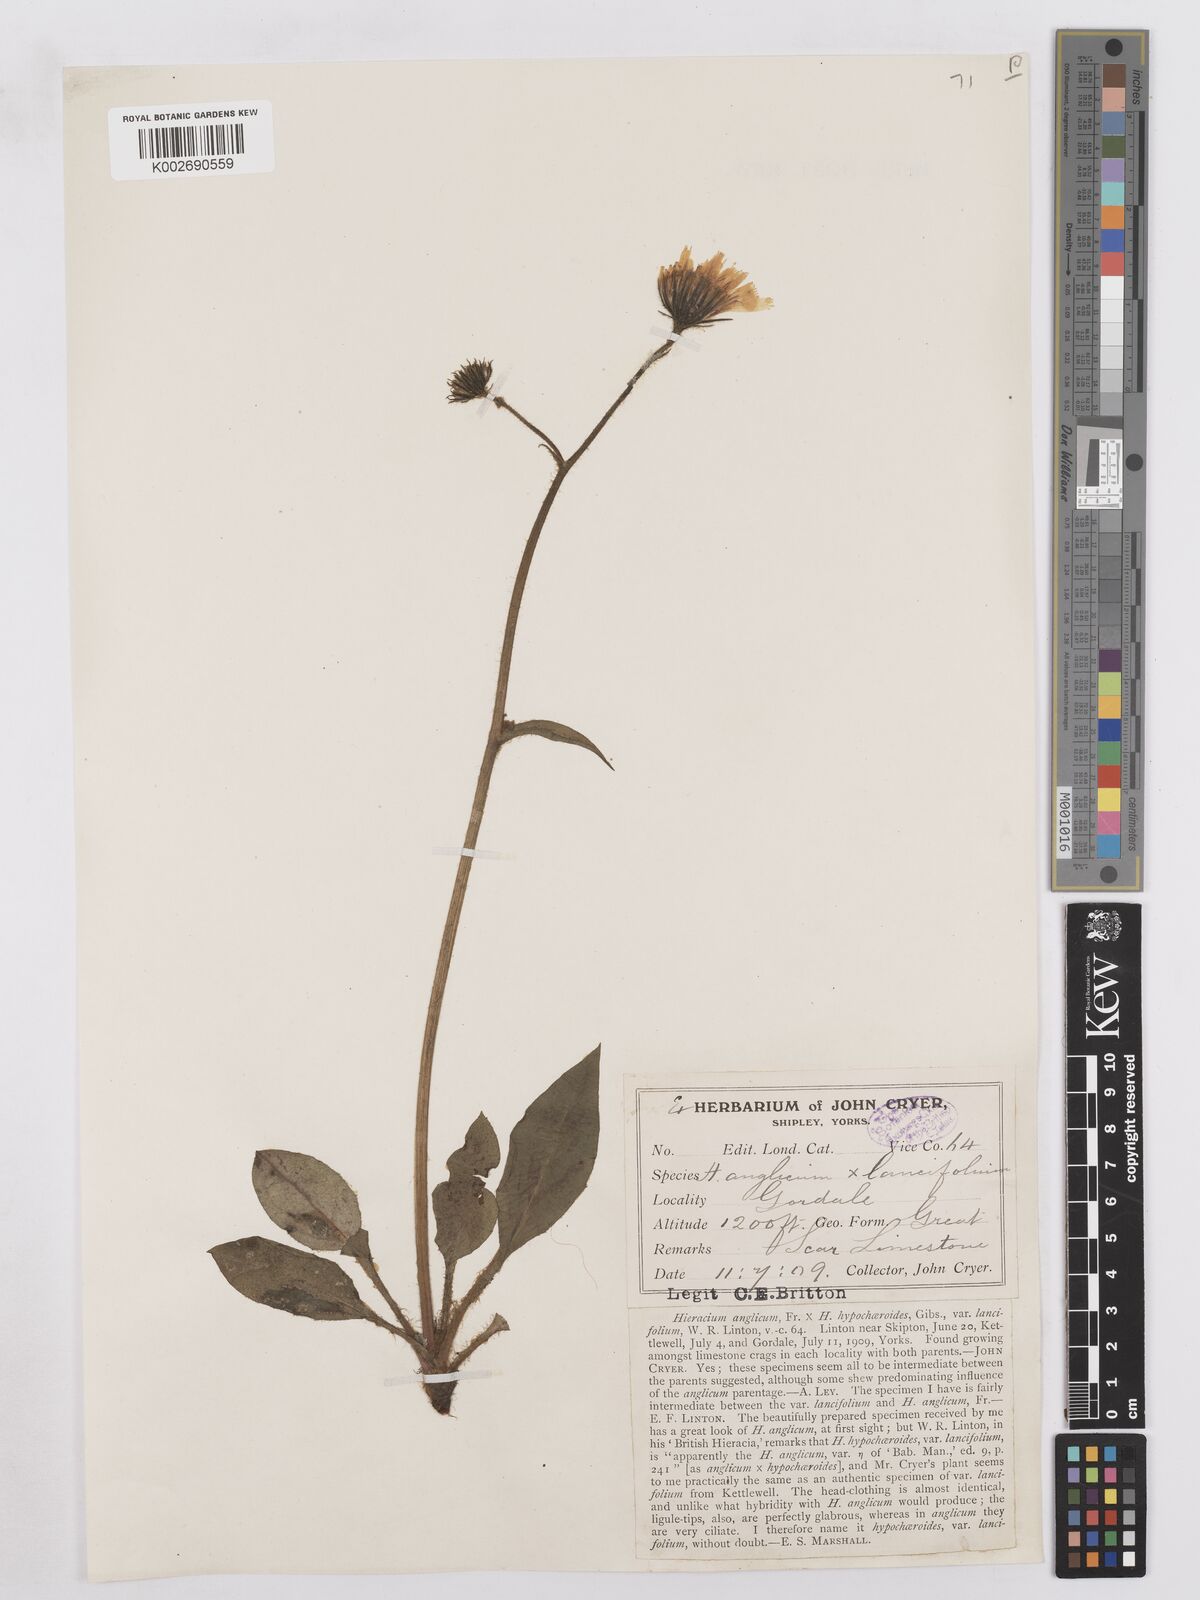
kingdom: Plantae
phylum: Tracheophyta
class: Magnoliopsida
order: Asterales
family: Asteraceae
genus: Hieracium
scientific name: Hieracium hypochoeroides
